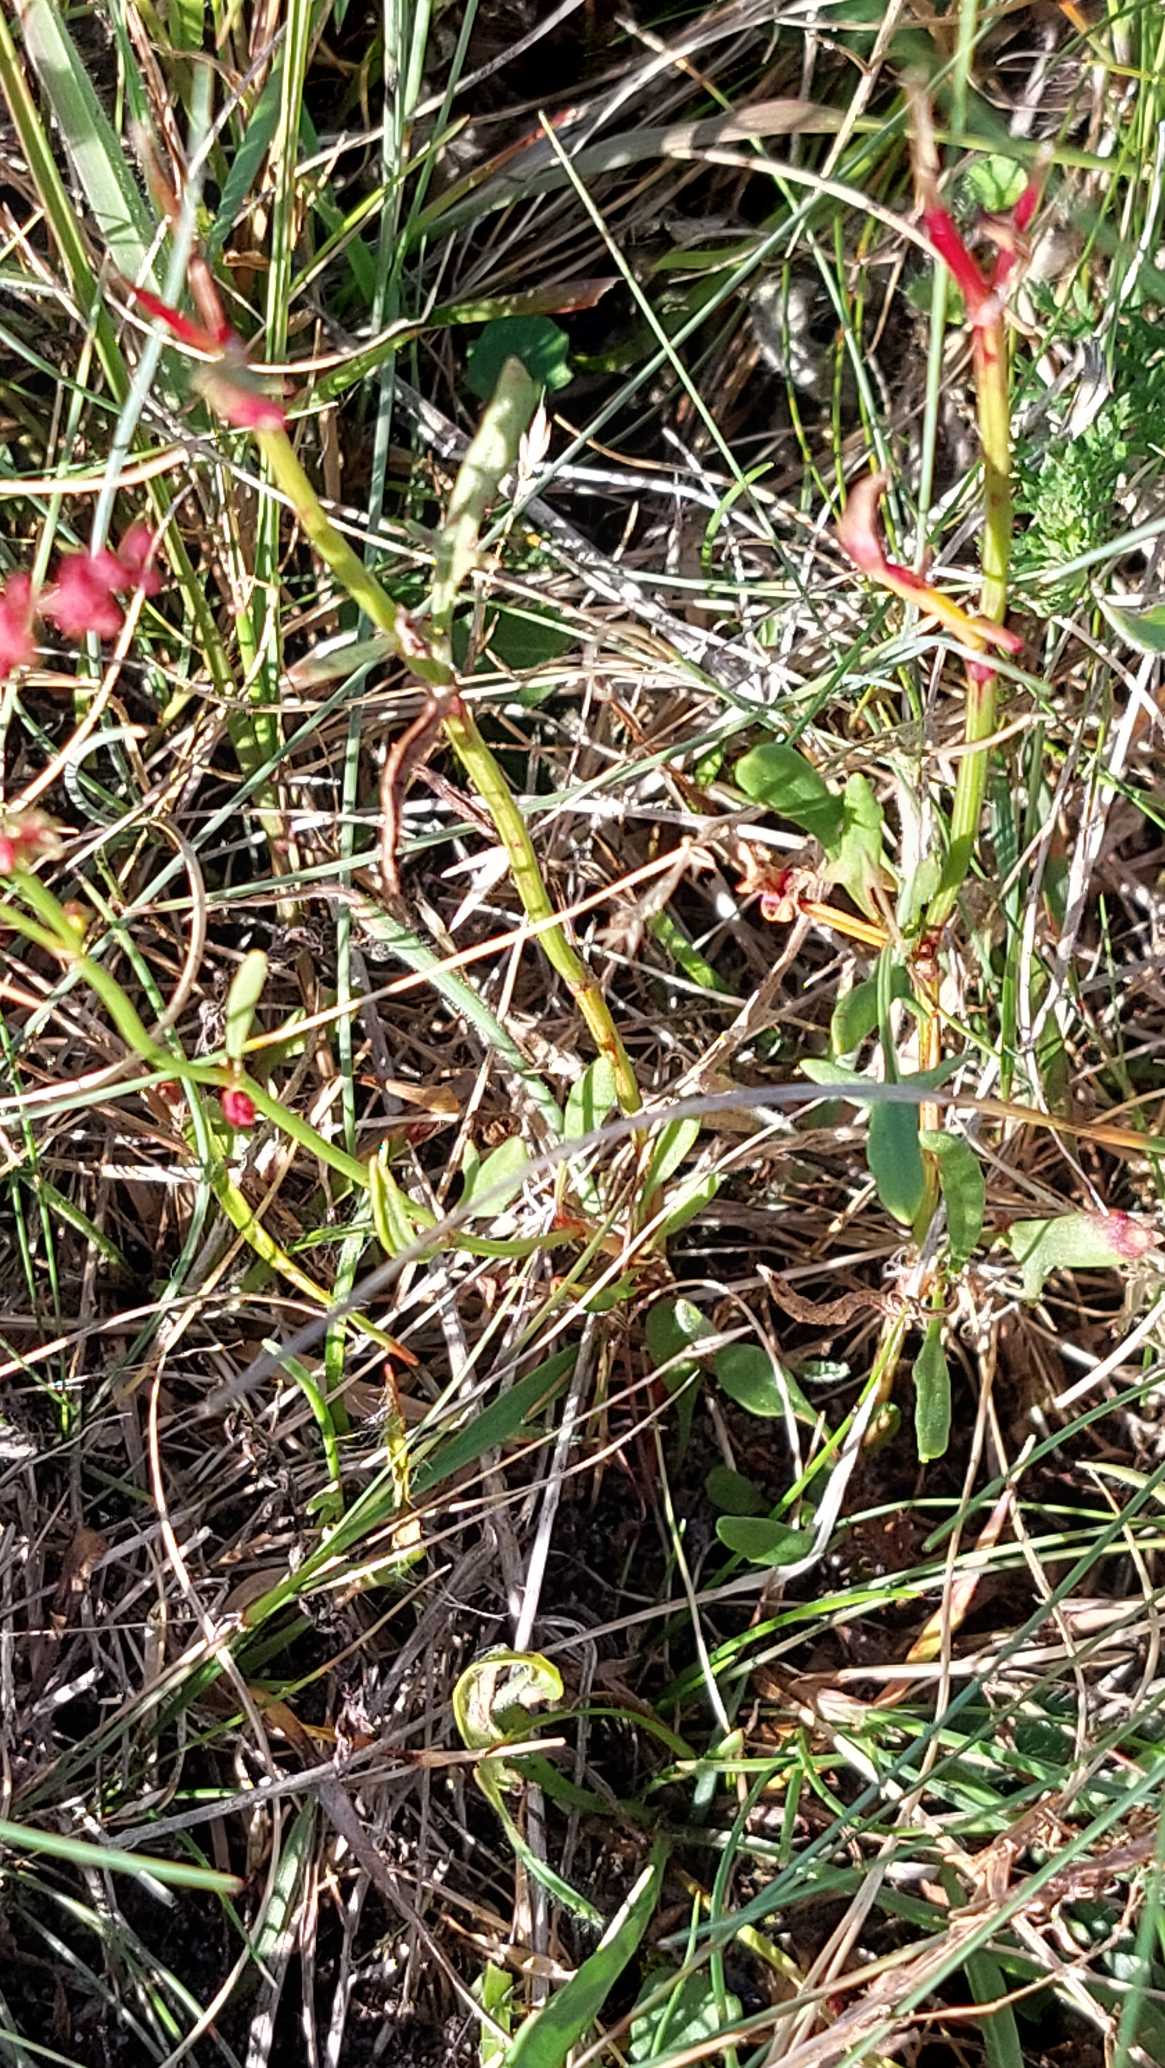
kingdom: Plantae
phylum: Tracheophyta
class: Magnoliopsida
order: Caryophyllales
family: Polygonaceae
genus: Rumex
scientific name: Rumex acetosella
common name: Rødknæ
